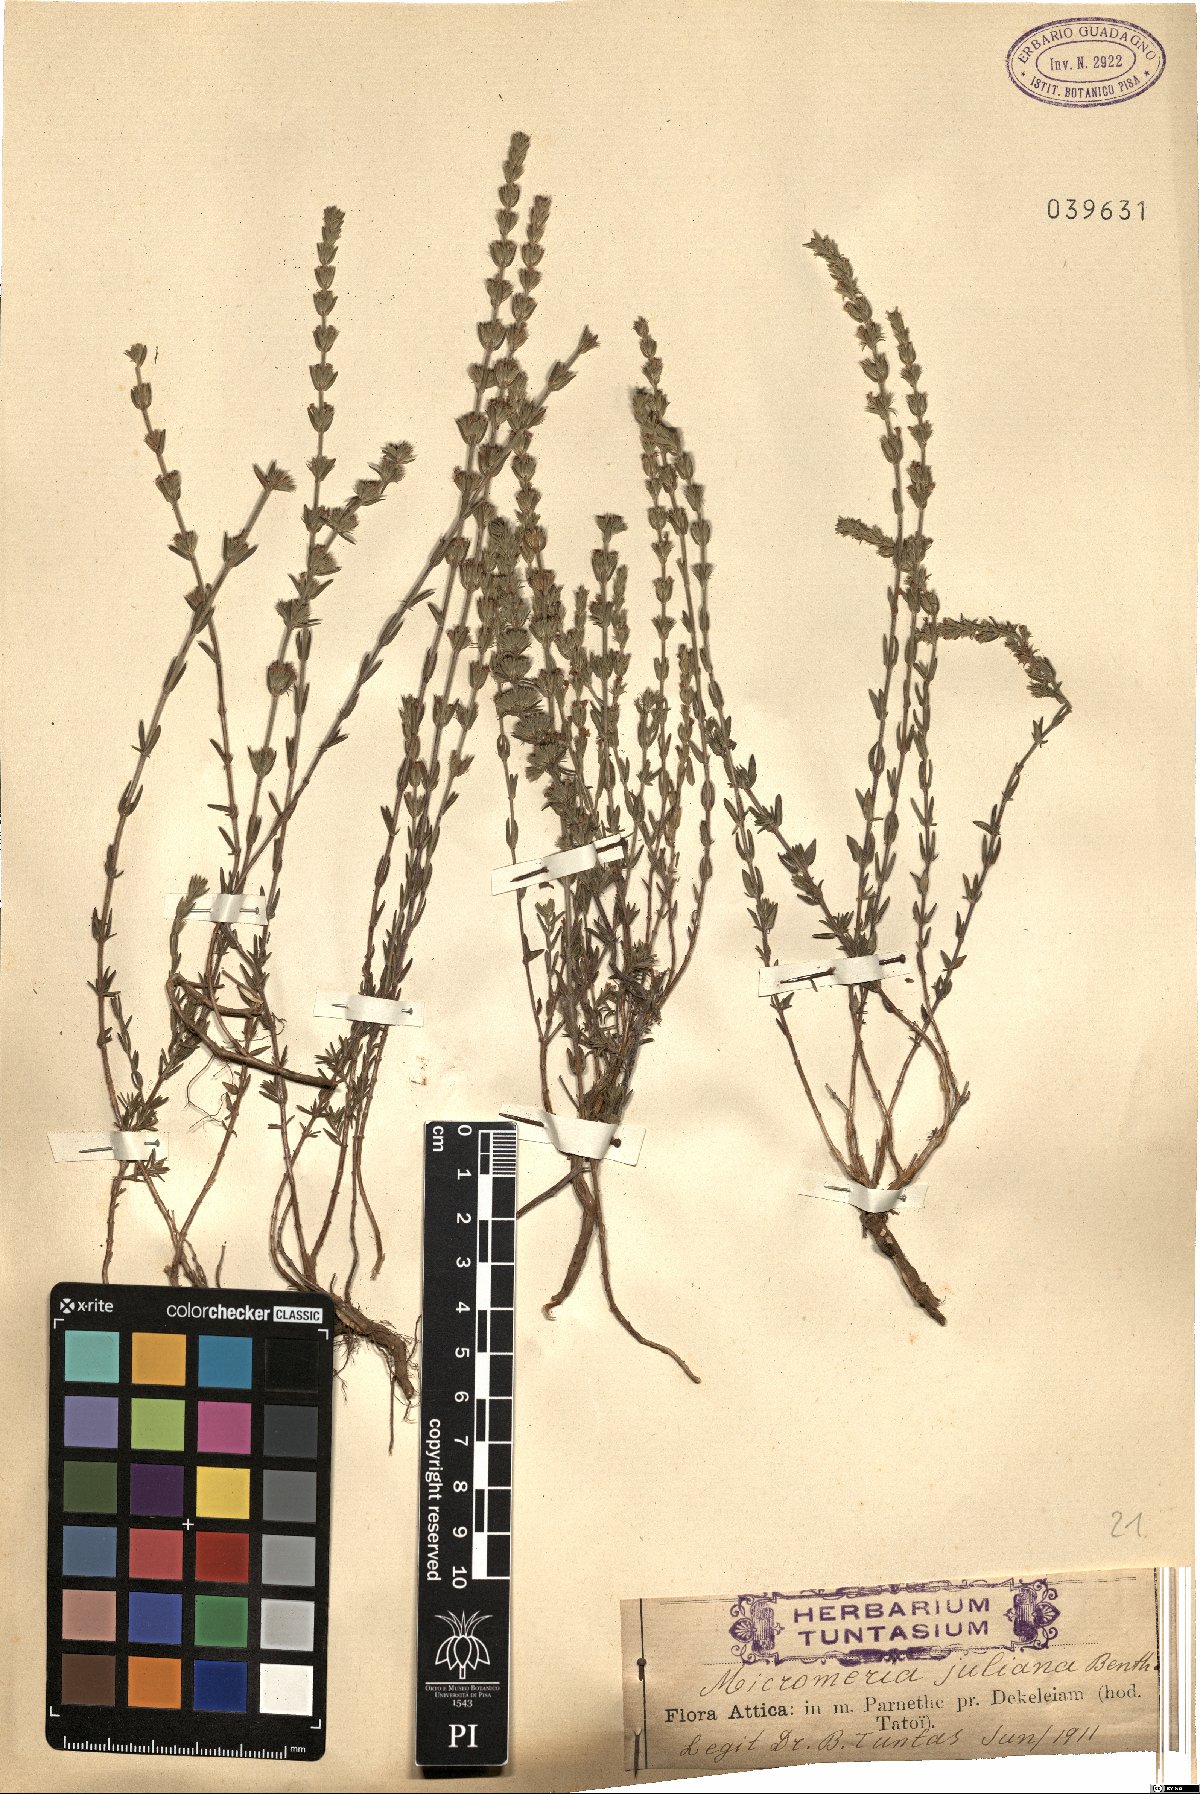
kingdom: Plantae
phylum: Tracheophyta
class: Magnoliopsida
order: Lamiales
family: Lamiaceae
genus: Micromeria
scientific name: Micromeria juliana
